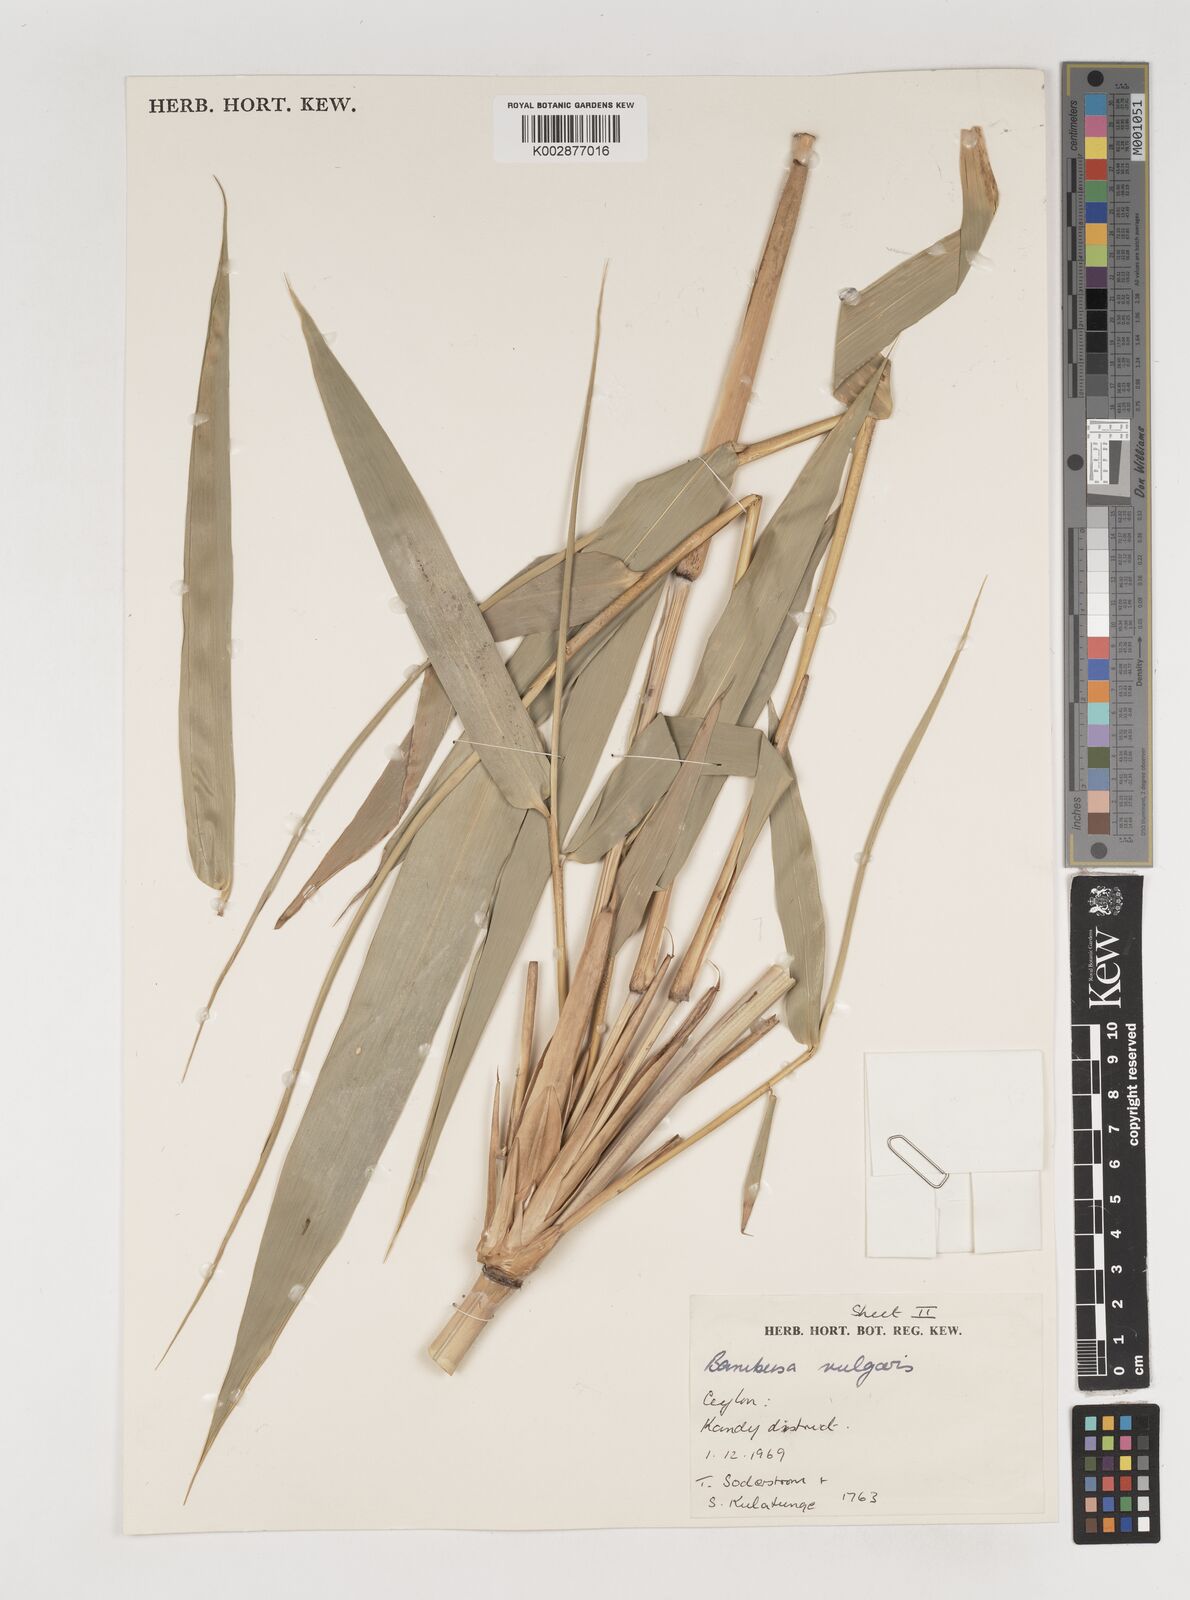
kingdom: Plantae
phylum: Tracheophyta
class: Liliopsida
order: Poales
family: Poaceae
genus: Bambusa
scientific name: Bambusa vulgaris
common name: Common bamboo
